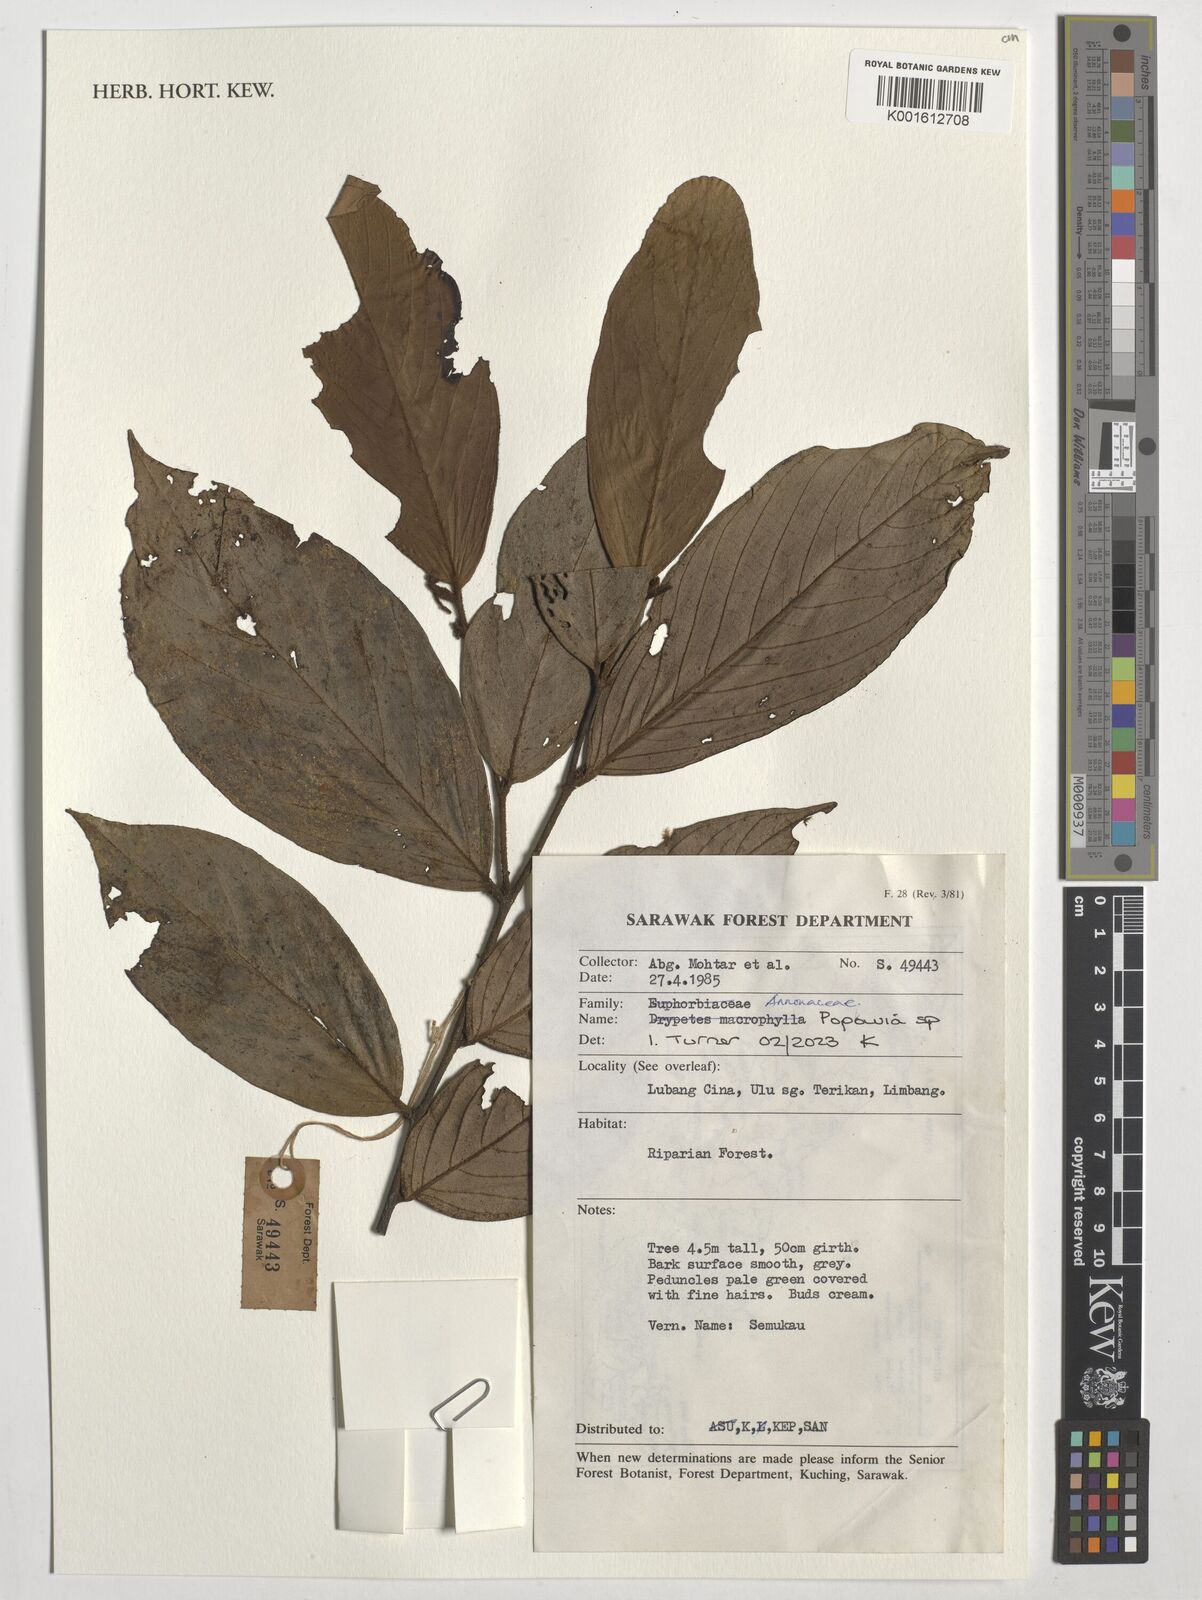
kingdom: Plantae
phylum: Tracheophyta
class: Magnoliopsida
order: Magnoliales
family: Annonaceae
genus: Popowia
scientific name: Popowia
